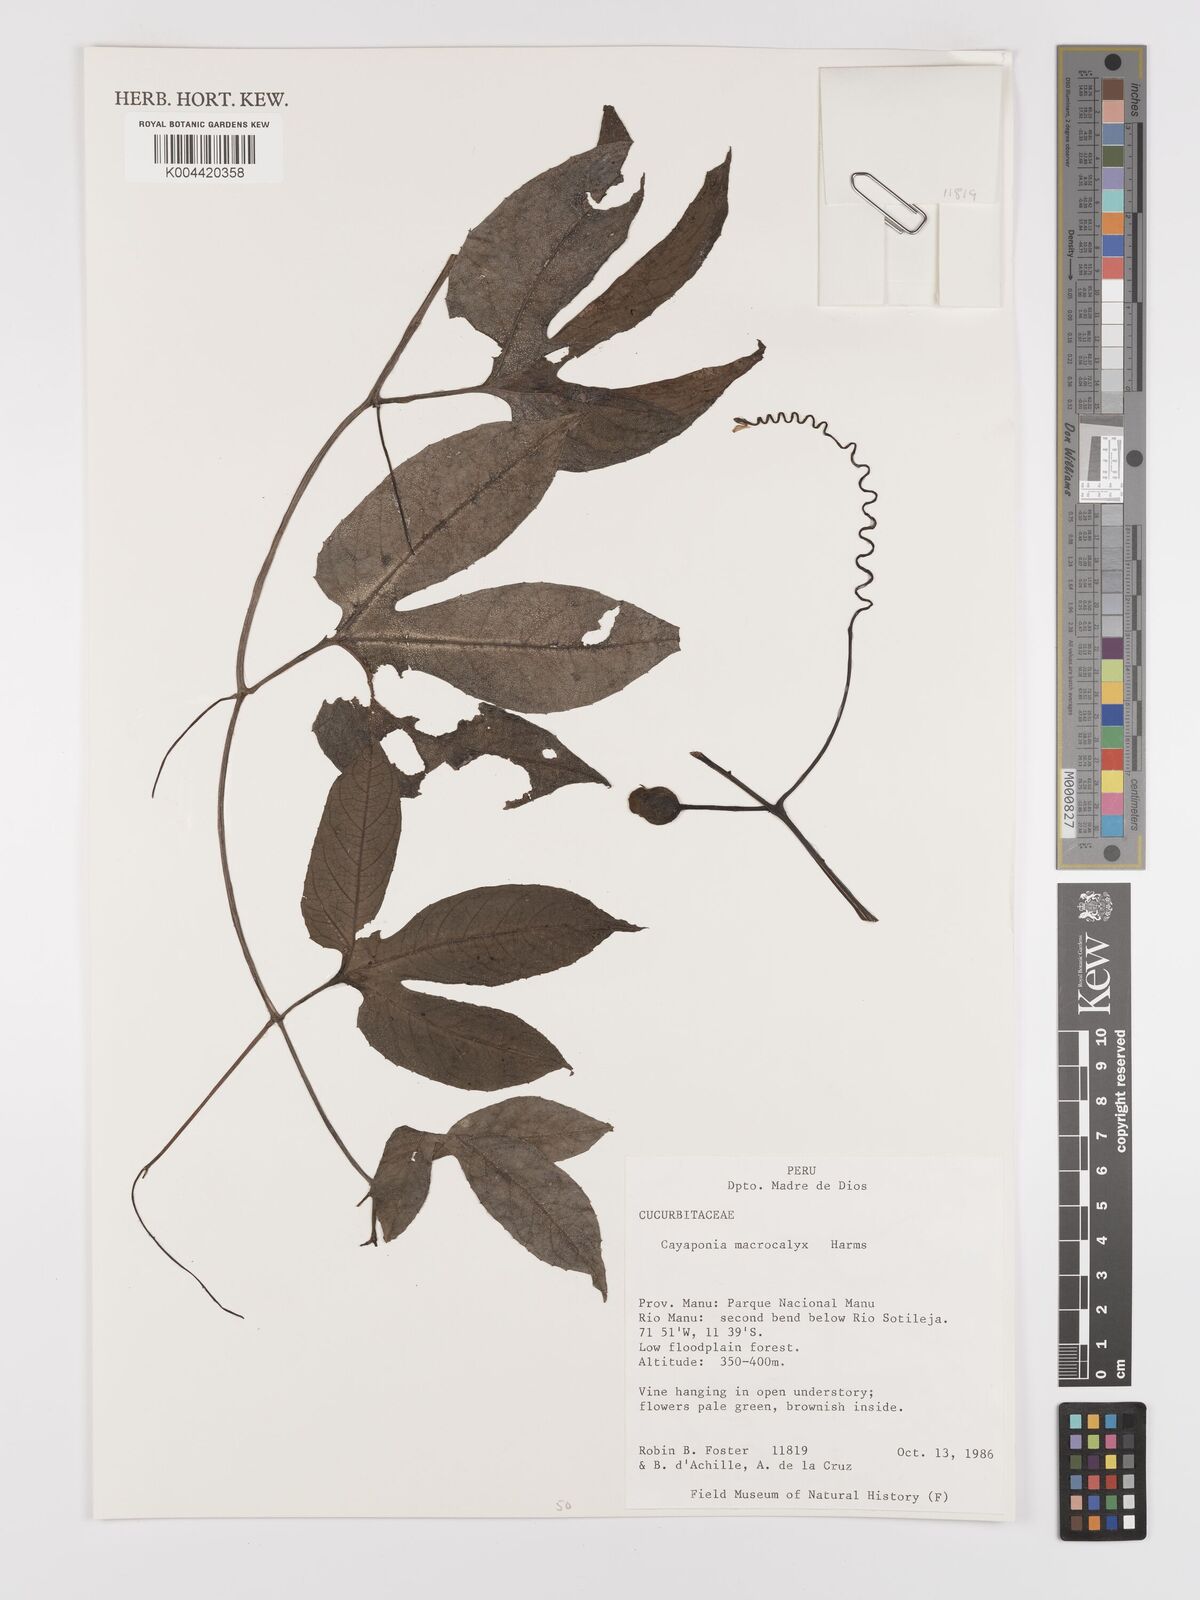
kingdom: Plantae
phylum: Tracheophyta
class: Magnoliopsida
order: Cucurbitales
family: Cucurbitaceae
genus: Cayaponia
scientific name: Cayaponia macrocalyx
